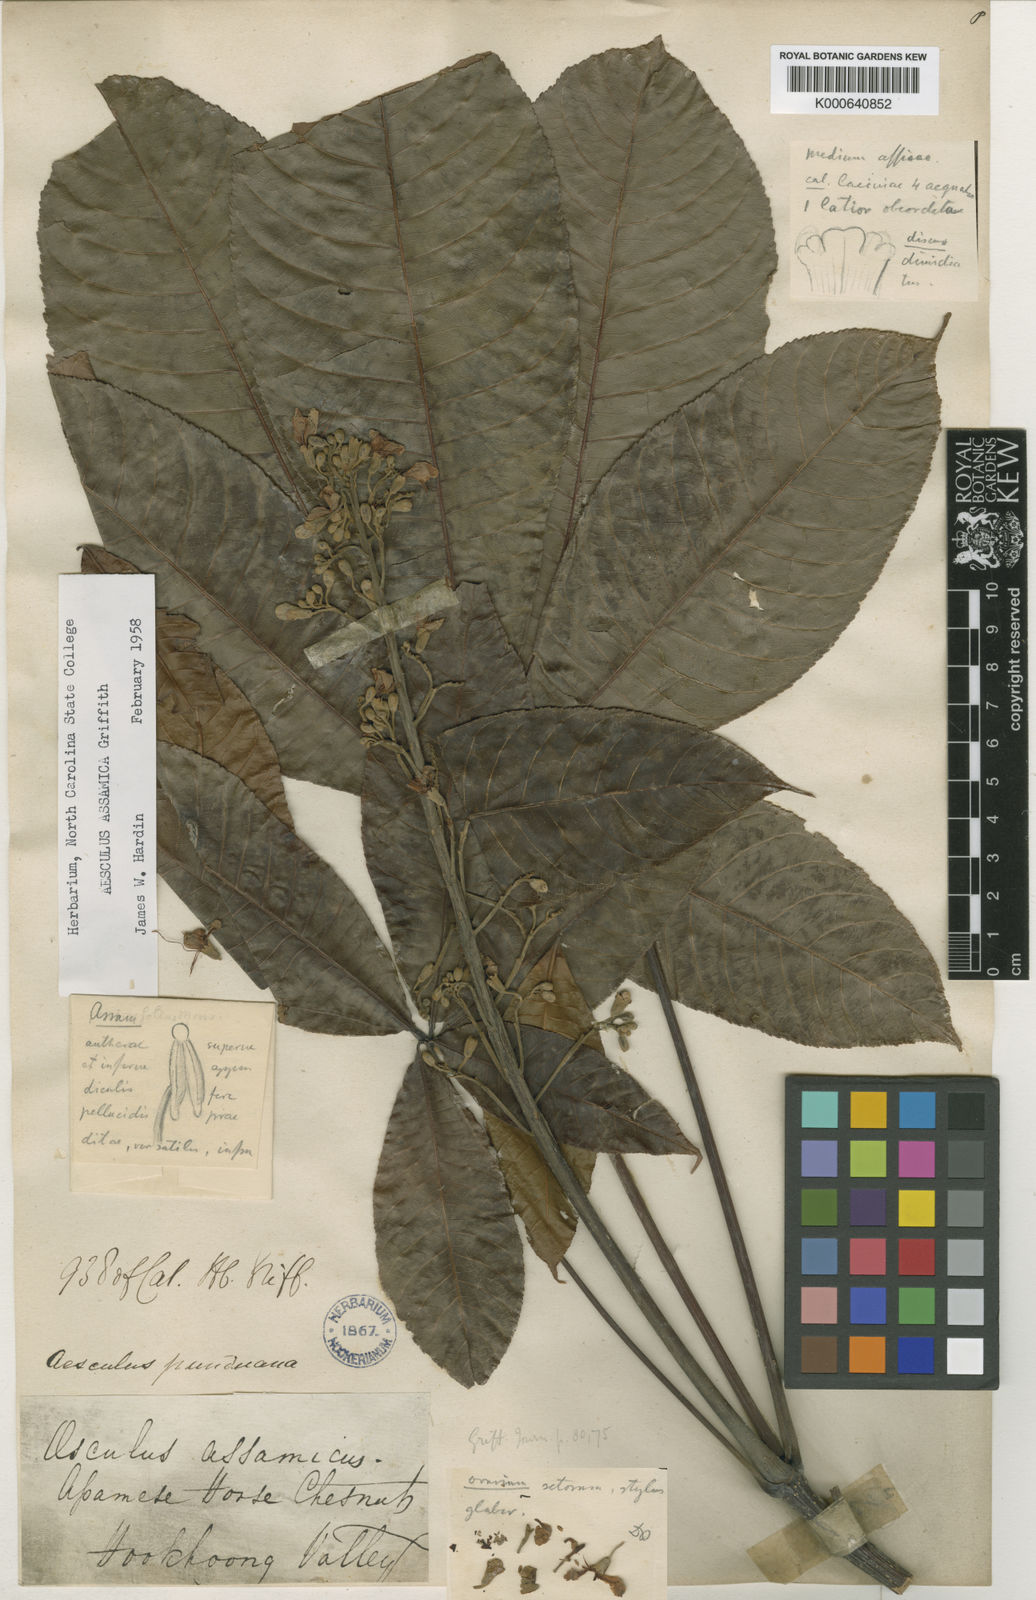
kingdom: Plantae
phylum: Tracheophyta
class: Magnoliopsida
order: Sapindales
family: Sapindaceae
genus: Aesculus
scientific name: Aesculus assamica
